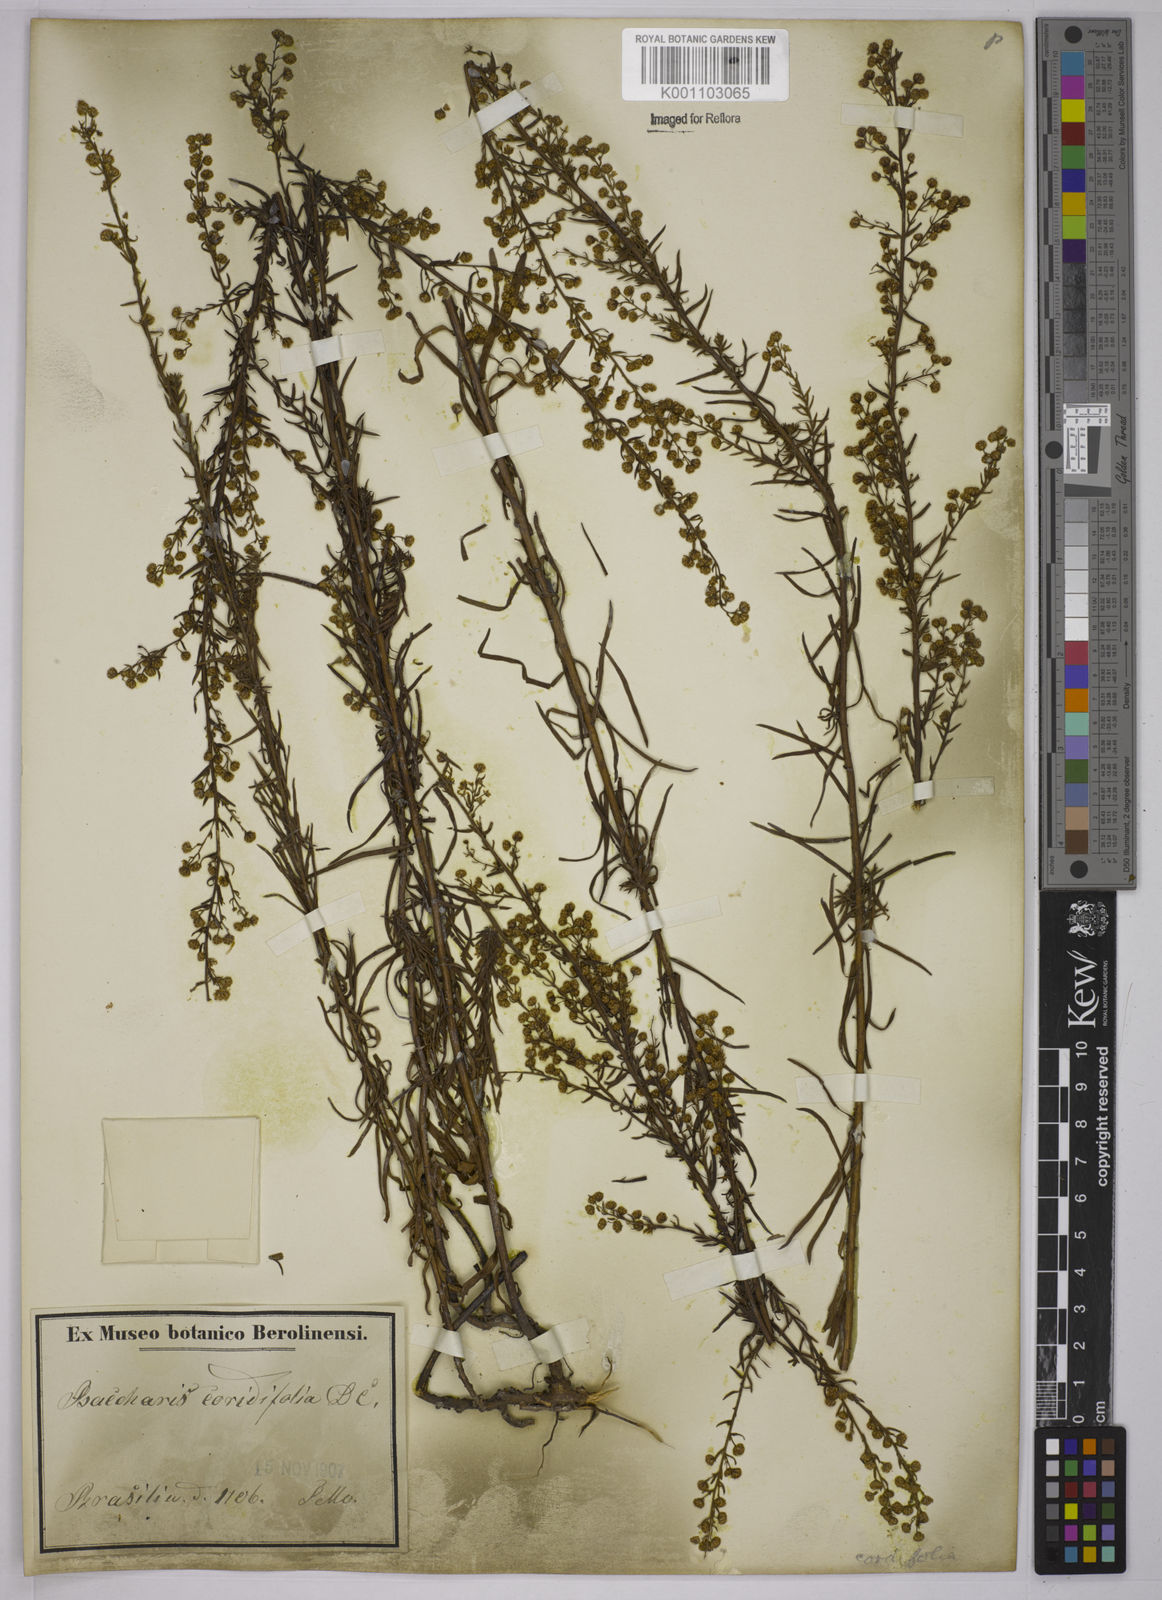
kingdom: Plantae
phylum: Tracheophyta
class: Magnoliopsida
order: Asterales
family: Asteraceae
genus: Baccharis
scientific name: Baccharis coridifolia
